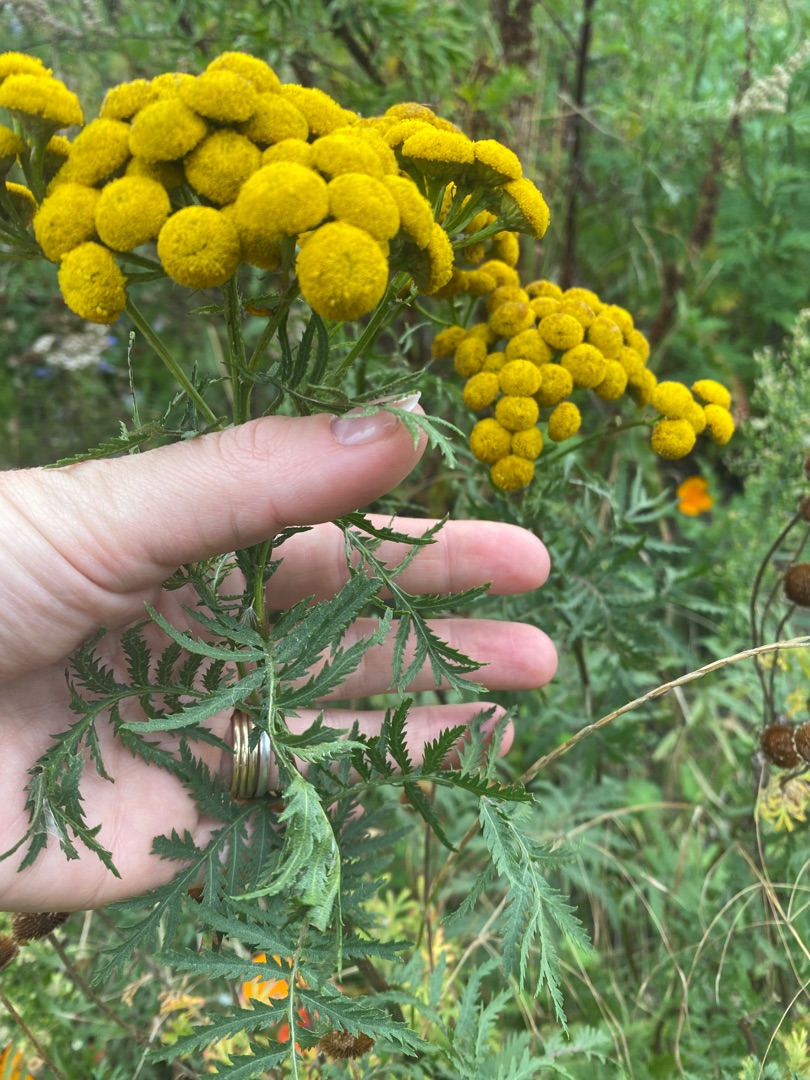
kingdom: Plantae
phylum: Tracheophyta
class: Magnoliopsida
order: Asterales
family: Asteraceae
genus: Tanacetum
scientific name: Tanacetum vulgare
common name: Rejnfan
